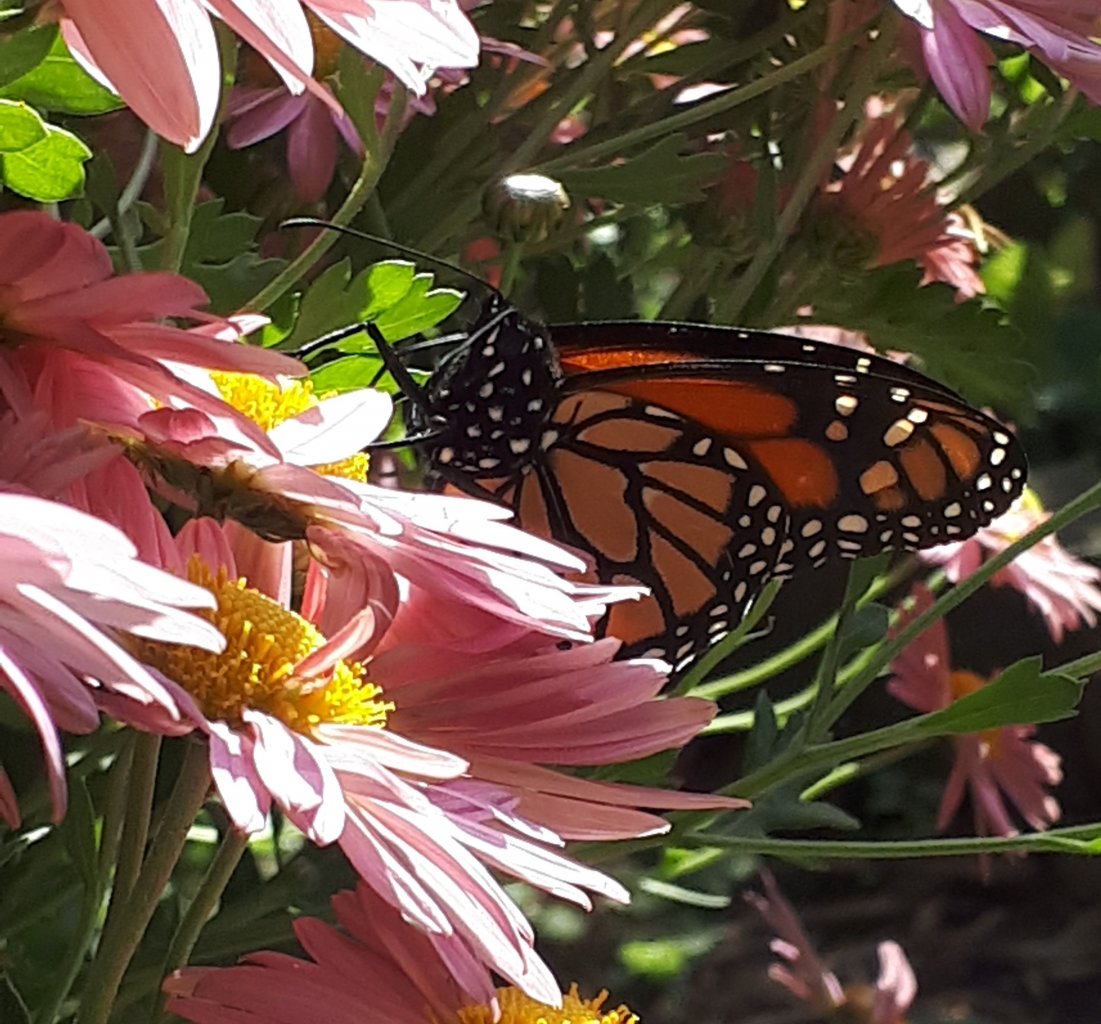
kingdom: Animalia
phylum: Arthropoda
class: Insecta
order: Lepidoptera
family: Nymphalidae
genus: Danaus
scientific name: Danaus plexippus
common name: Monarch
